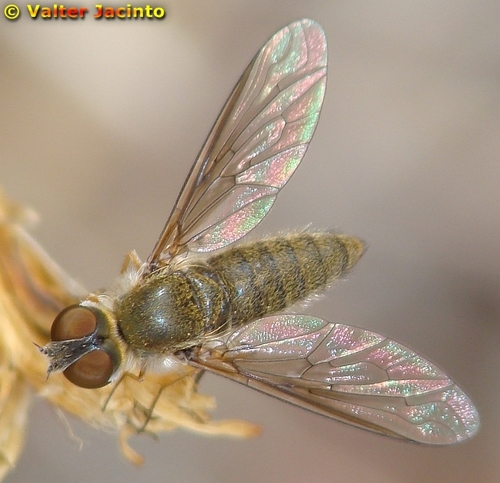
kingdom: Animalia
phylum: Arthropoda
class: Insecta
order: Diptera
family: Bombyliidae
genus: Petrorossia
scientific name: Petrorossia hespera
